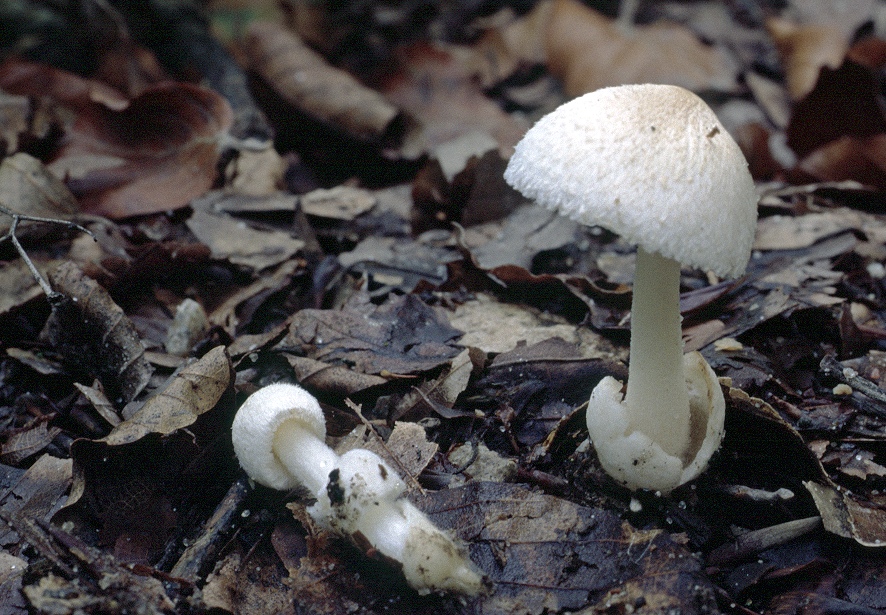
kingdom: Fungi
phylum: Basidiomycota
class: Agaricomycetes
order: Agaricales
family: Pluteaceae
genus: Volvariella
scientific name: Volvariella hypopithys
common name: dunstokket posesvamp
